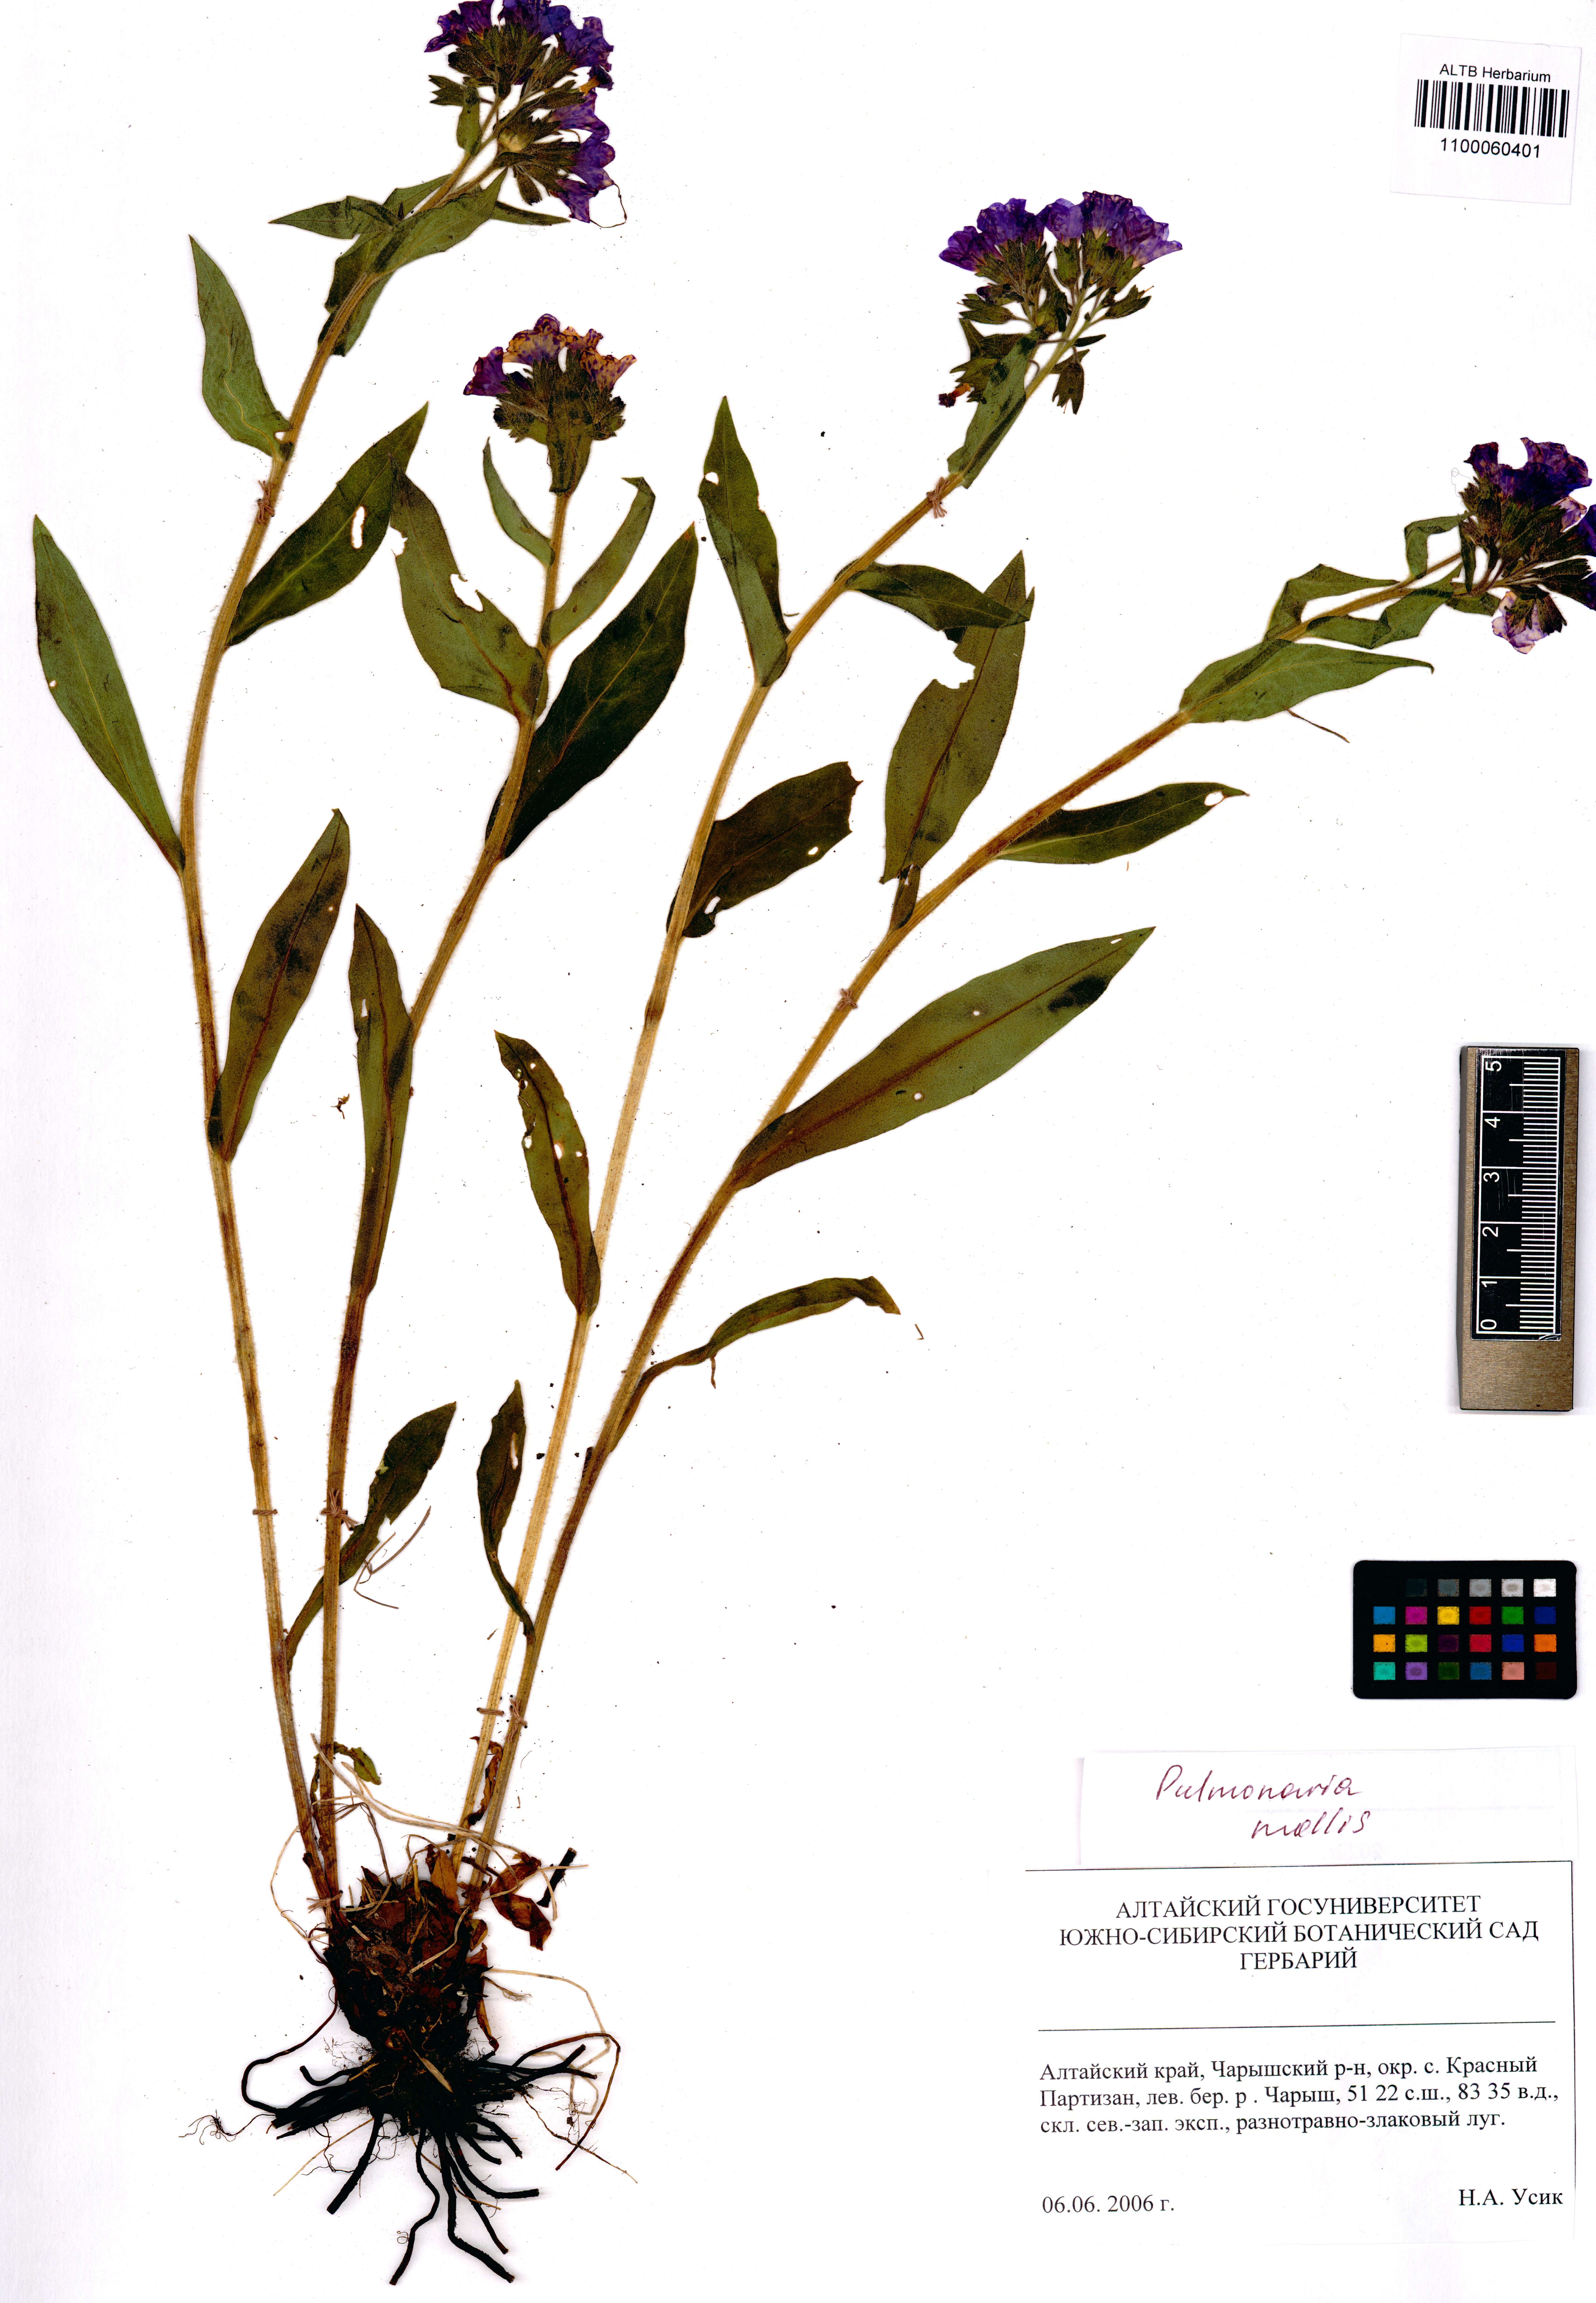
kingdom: Plantae
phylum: Tracheophyta
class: Magnoliopsida
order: Boraginales
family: Boraginaceae
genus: Pulmonaria
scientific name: Pulmonaria mollis
